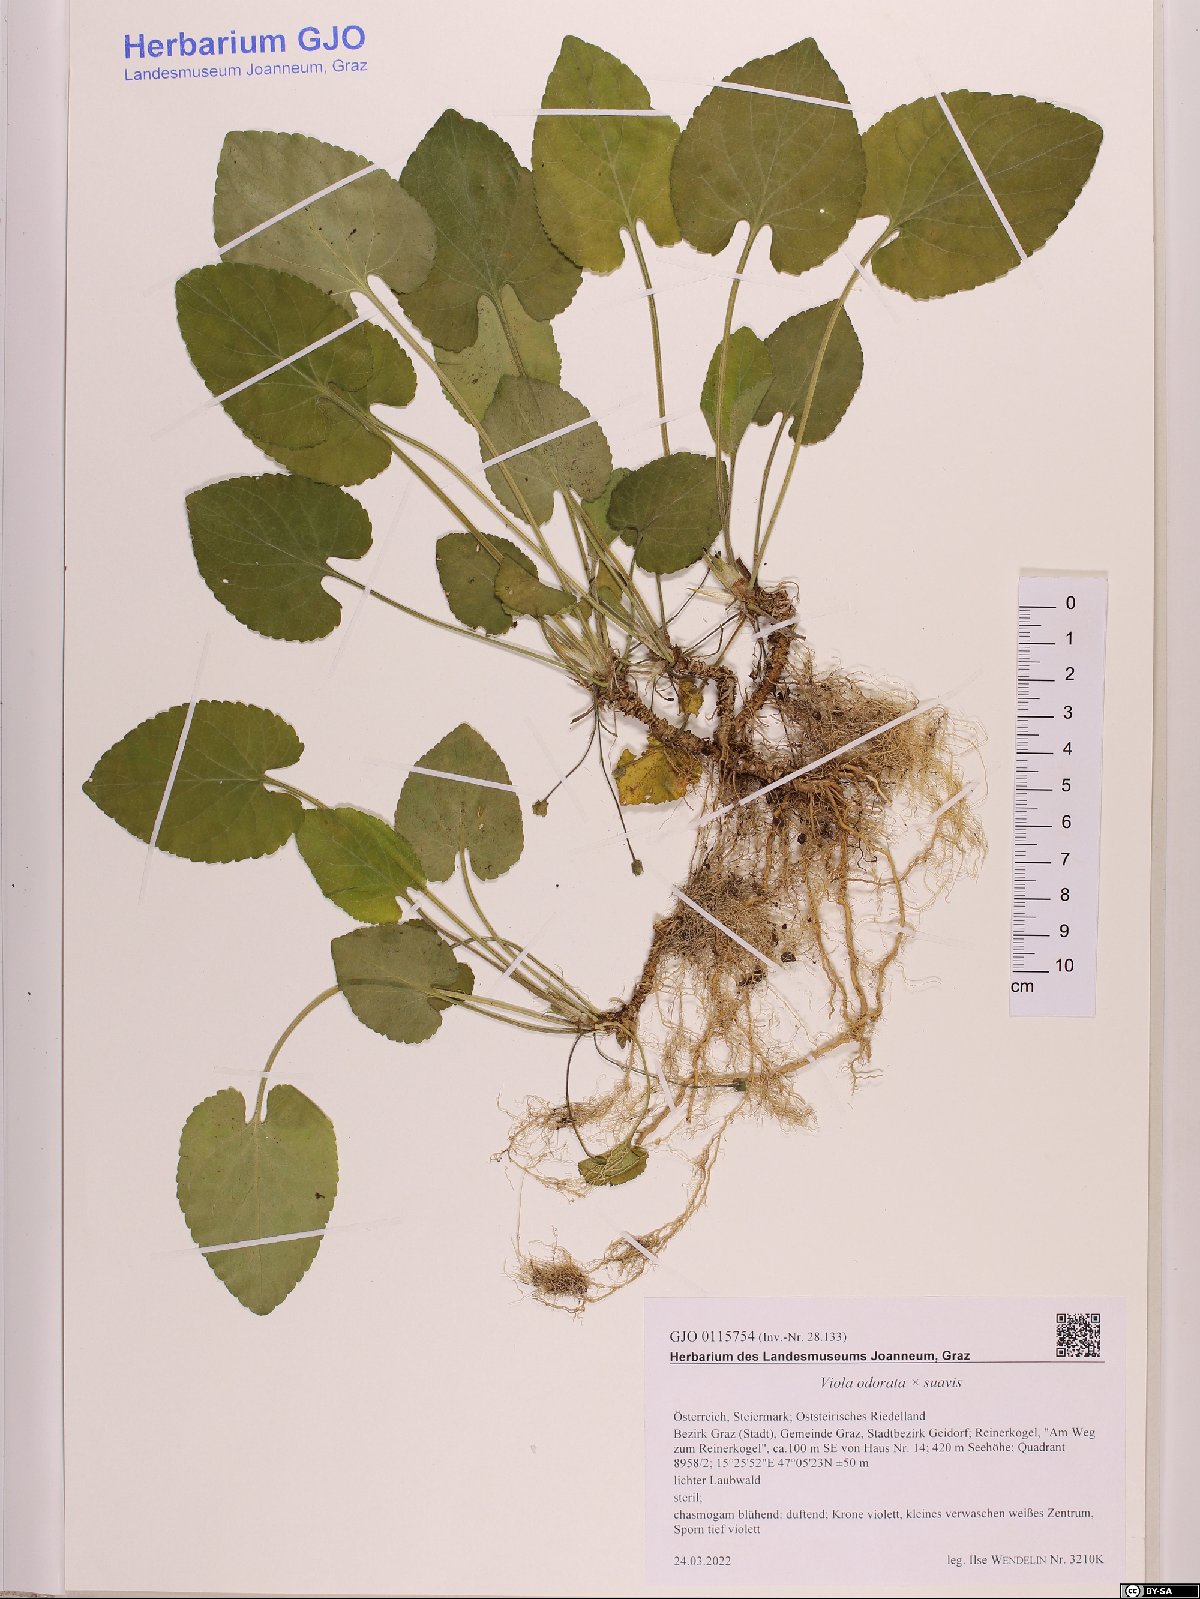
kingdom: Plantae
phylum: Tracheophyta
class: Magnoliopsida
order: Malpighiales
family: Violaceae
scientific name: Violaceae
